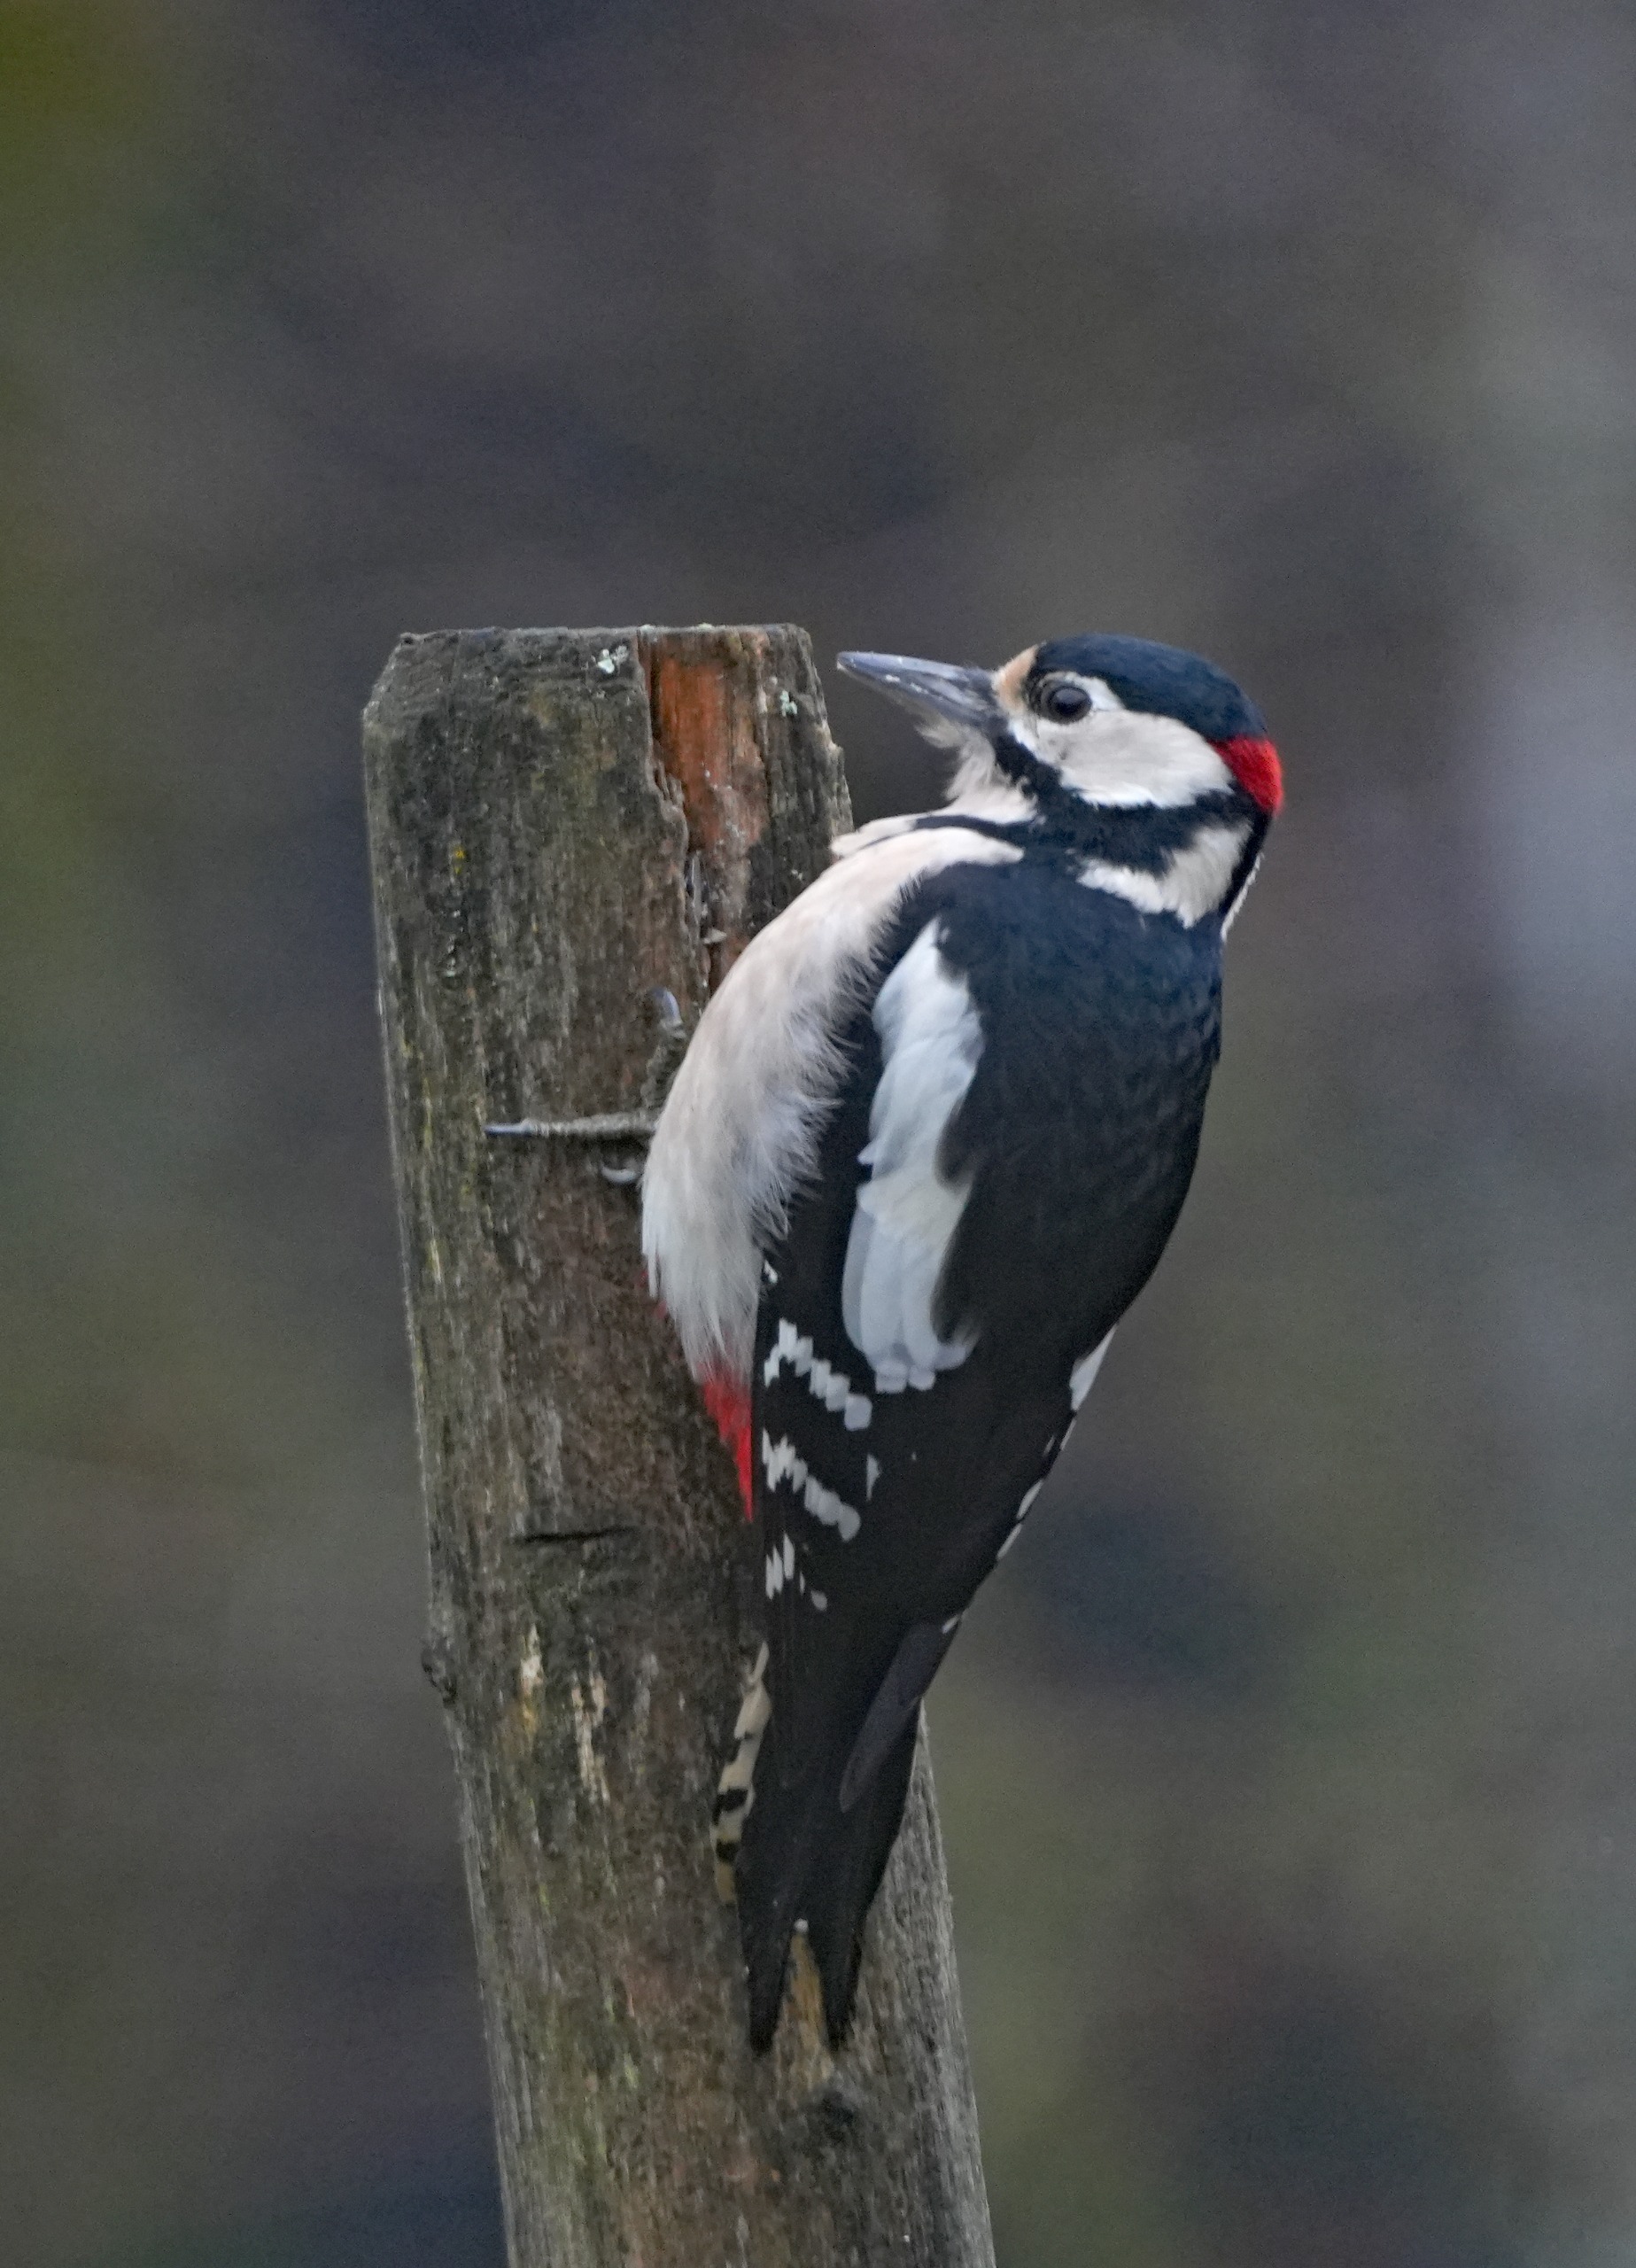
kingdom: Animalia
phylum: Chordata
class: Aves
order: Piciformes
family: Picidae
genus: Dendrocopos
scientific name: Dendrocopos major
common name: Stor flagspætte
